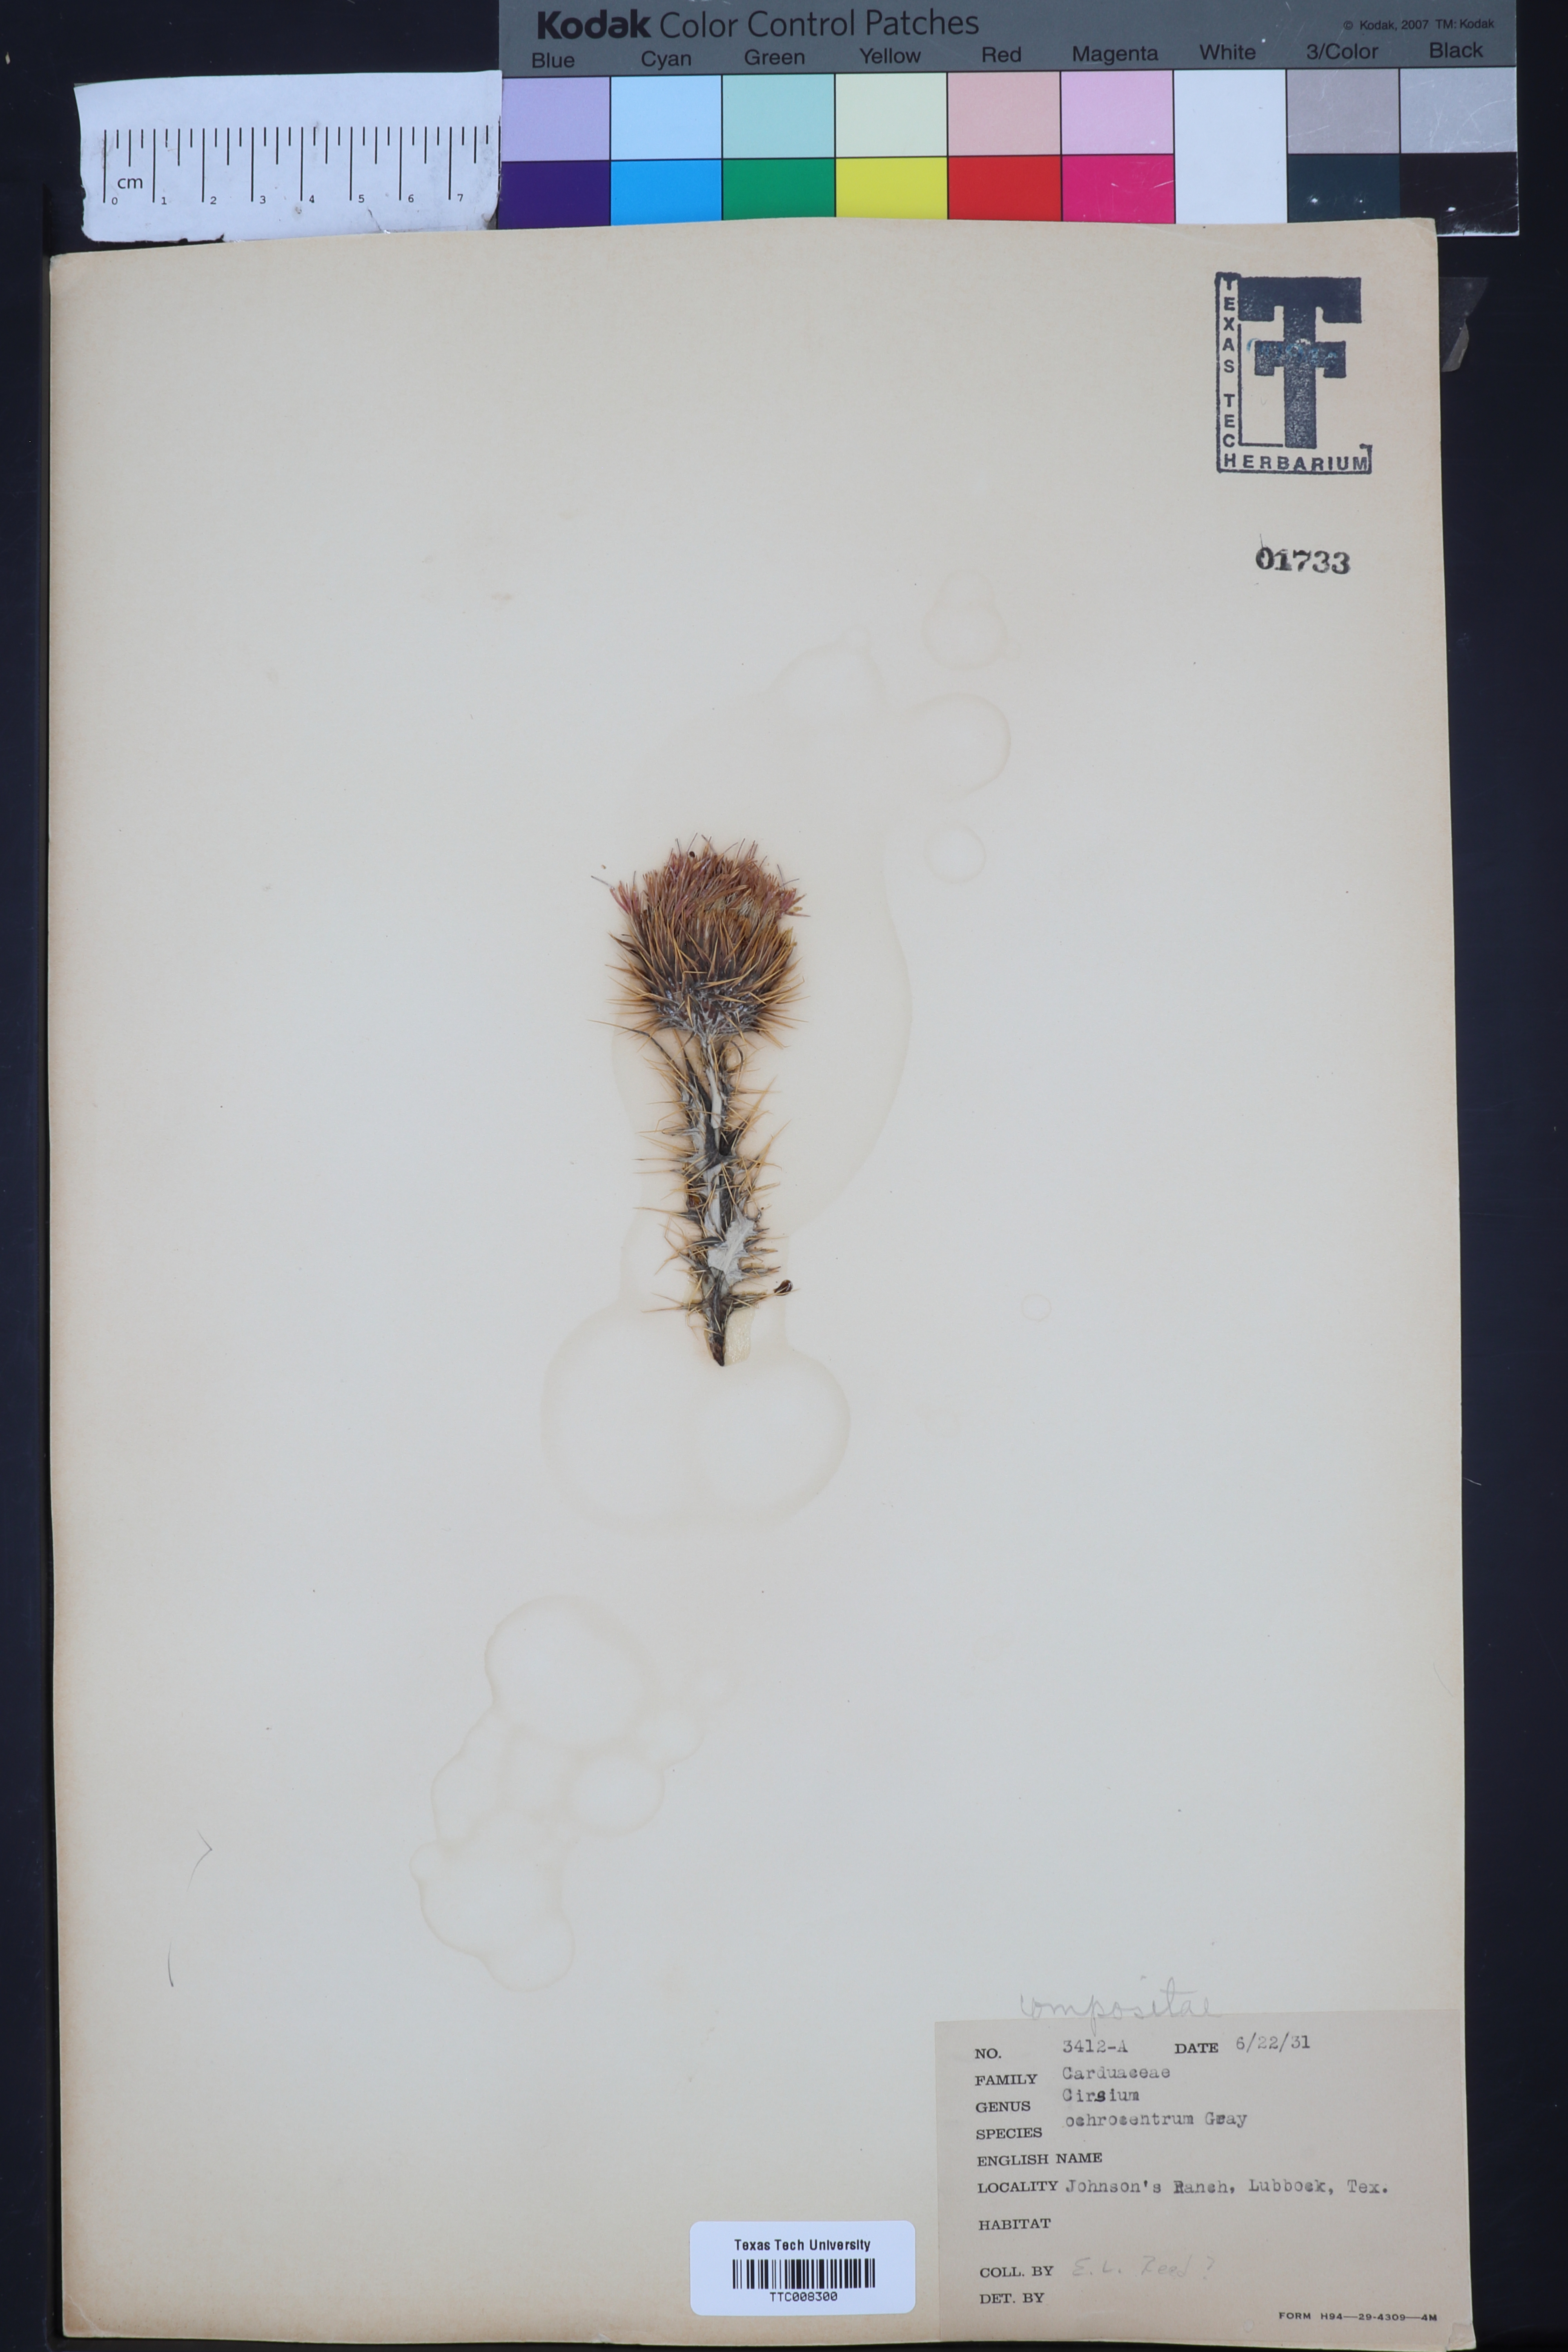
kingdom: Plantae
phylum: Tracheophyta
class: Magnoliopsida
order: Asterales
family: Asteraceae
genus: Cirsium
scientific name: Cirsium ochrocentrum
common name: Yellow-spine thistle
